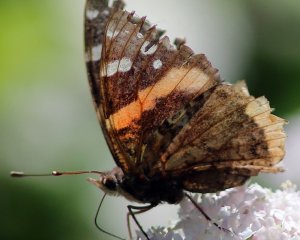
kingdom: Animalia
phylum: Arthropoda
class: Insecta
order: Lepidoptera
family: Nymphalidae
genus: Vanessa
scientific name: Vanessa atalanta
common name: Red Admiral
